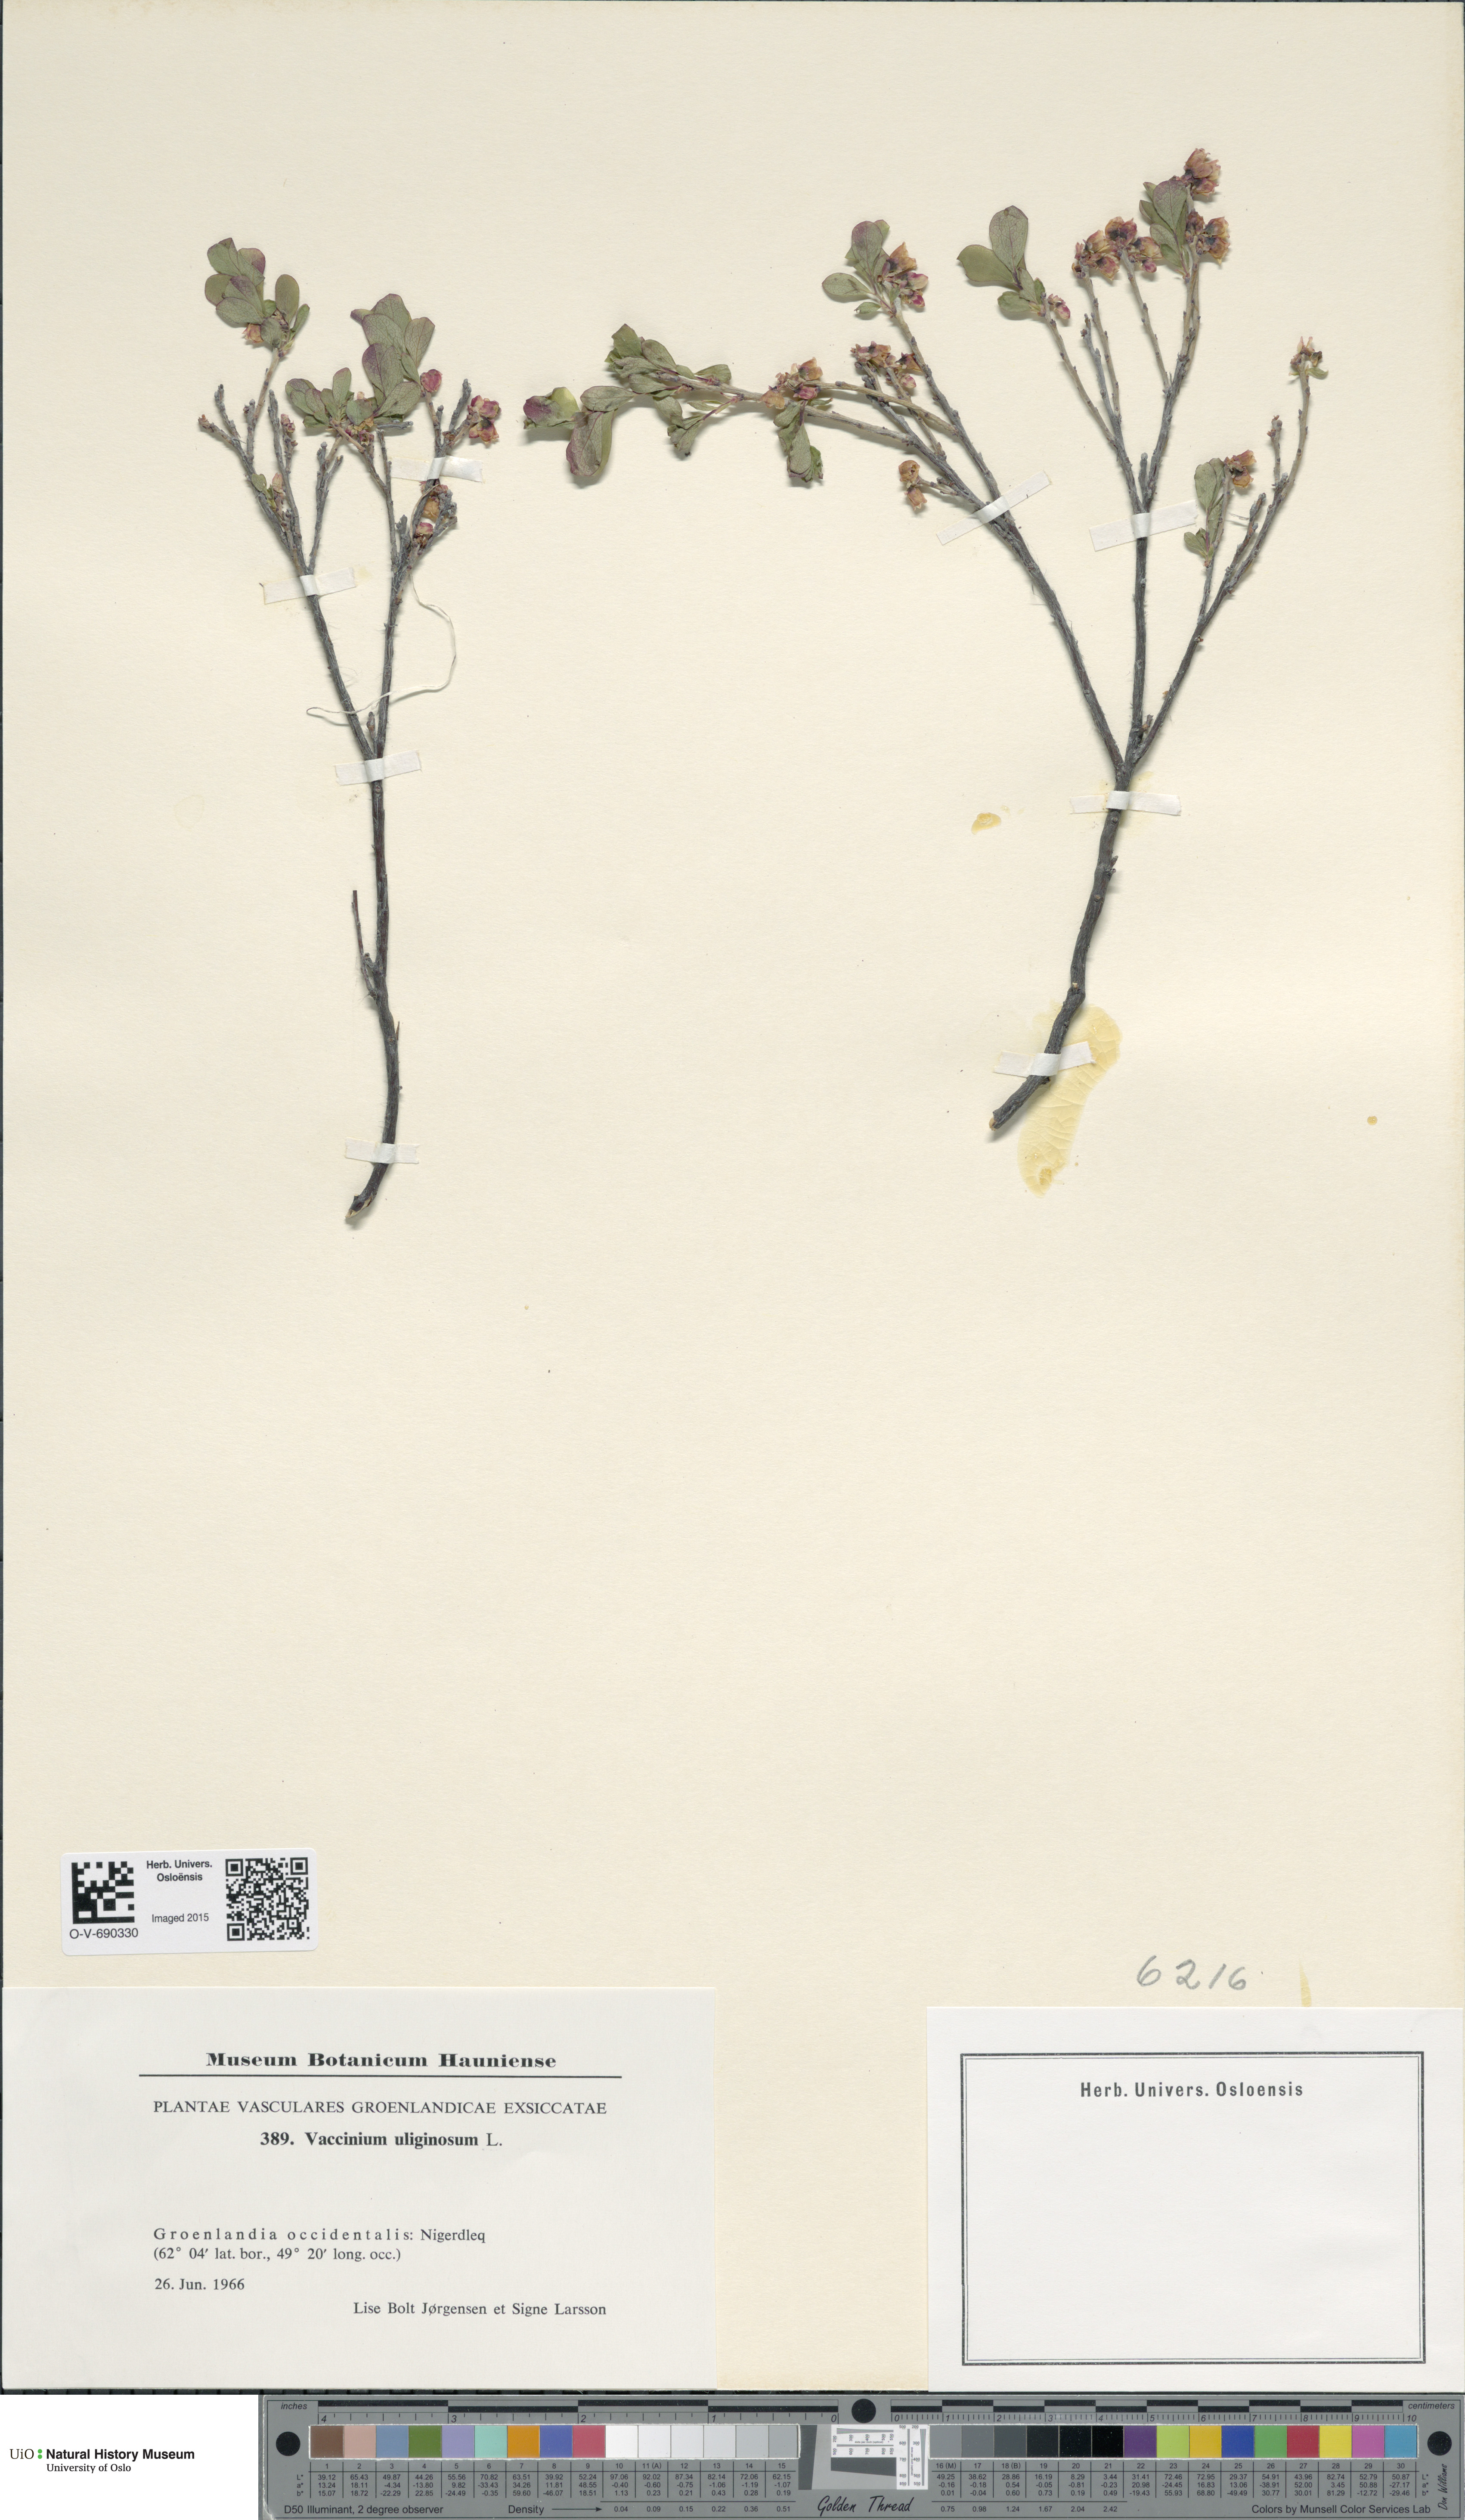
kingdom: Plantae
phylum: Tracheophyta
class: Magnoliopsida
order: Ericales
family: Ericaceae
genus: Vaccinium
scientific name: Vaccinium uliginosum
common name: Bog bilberry
